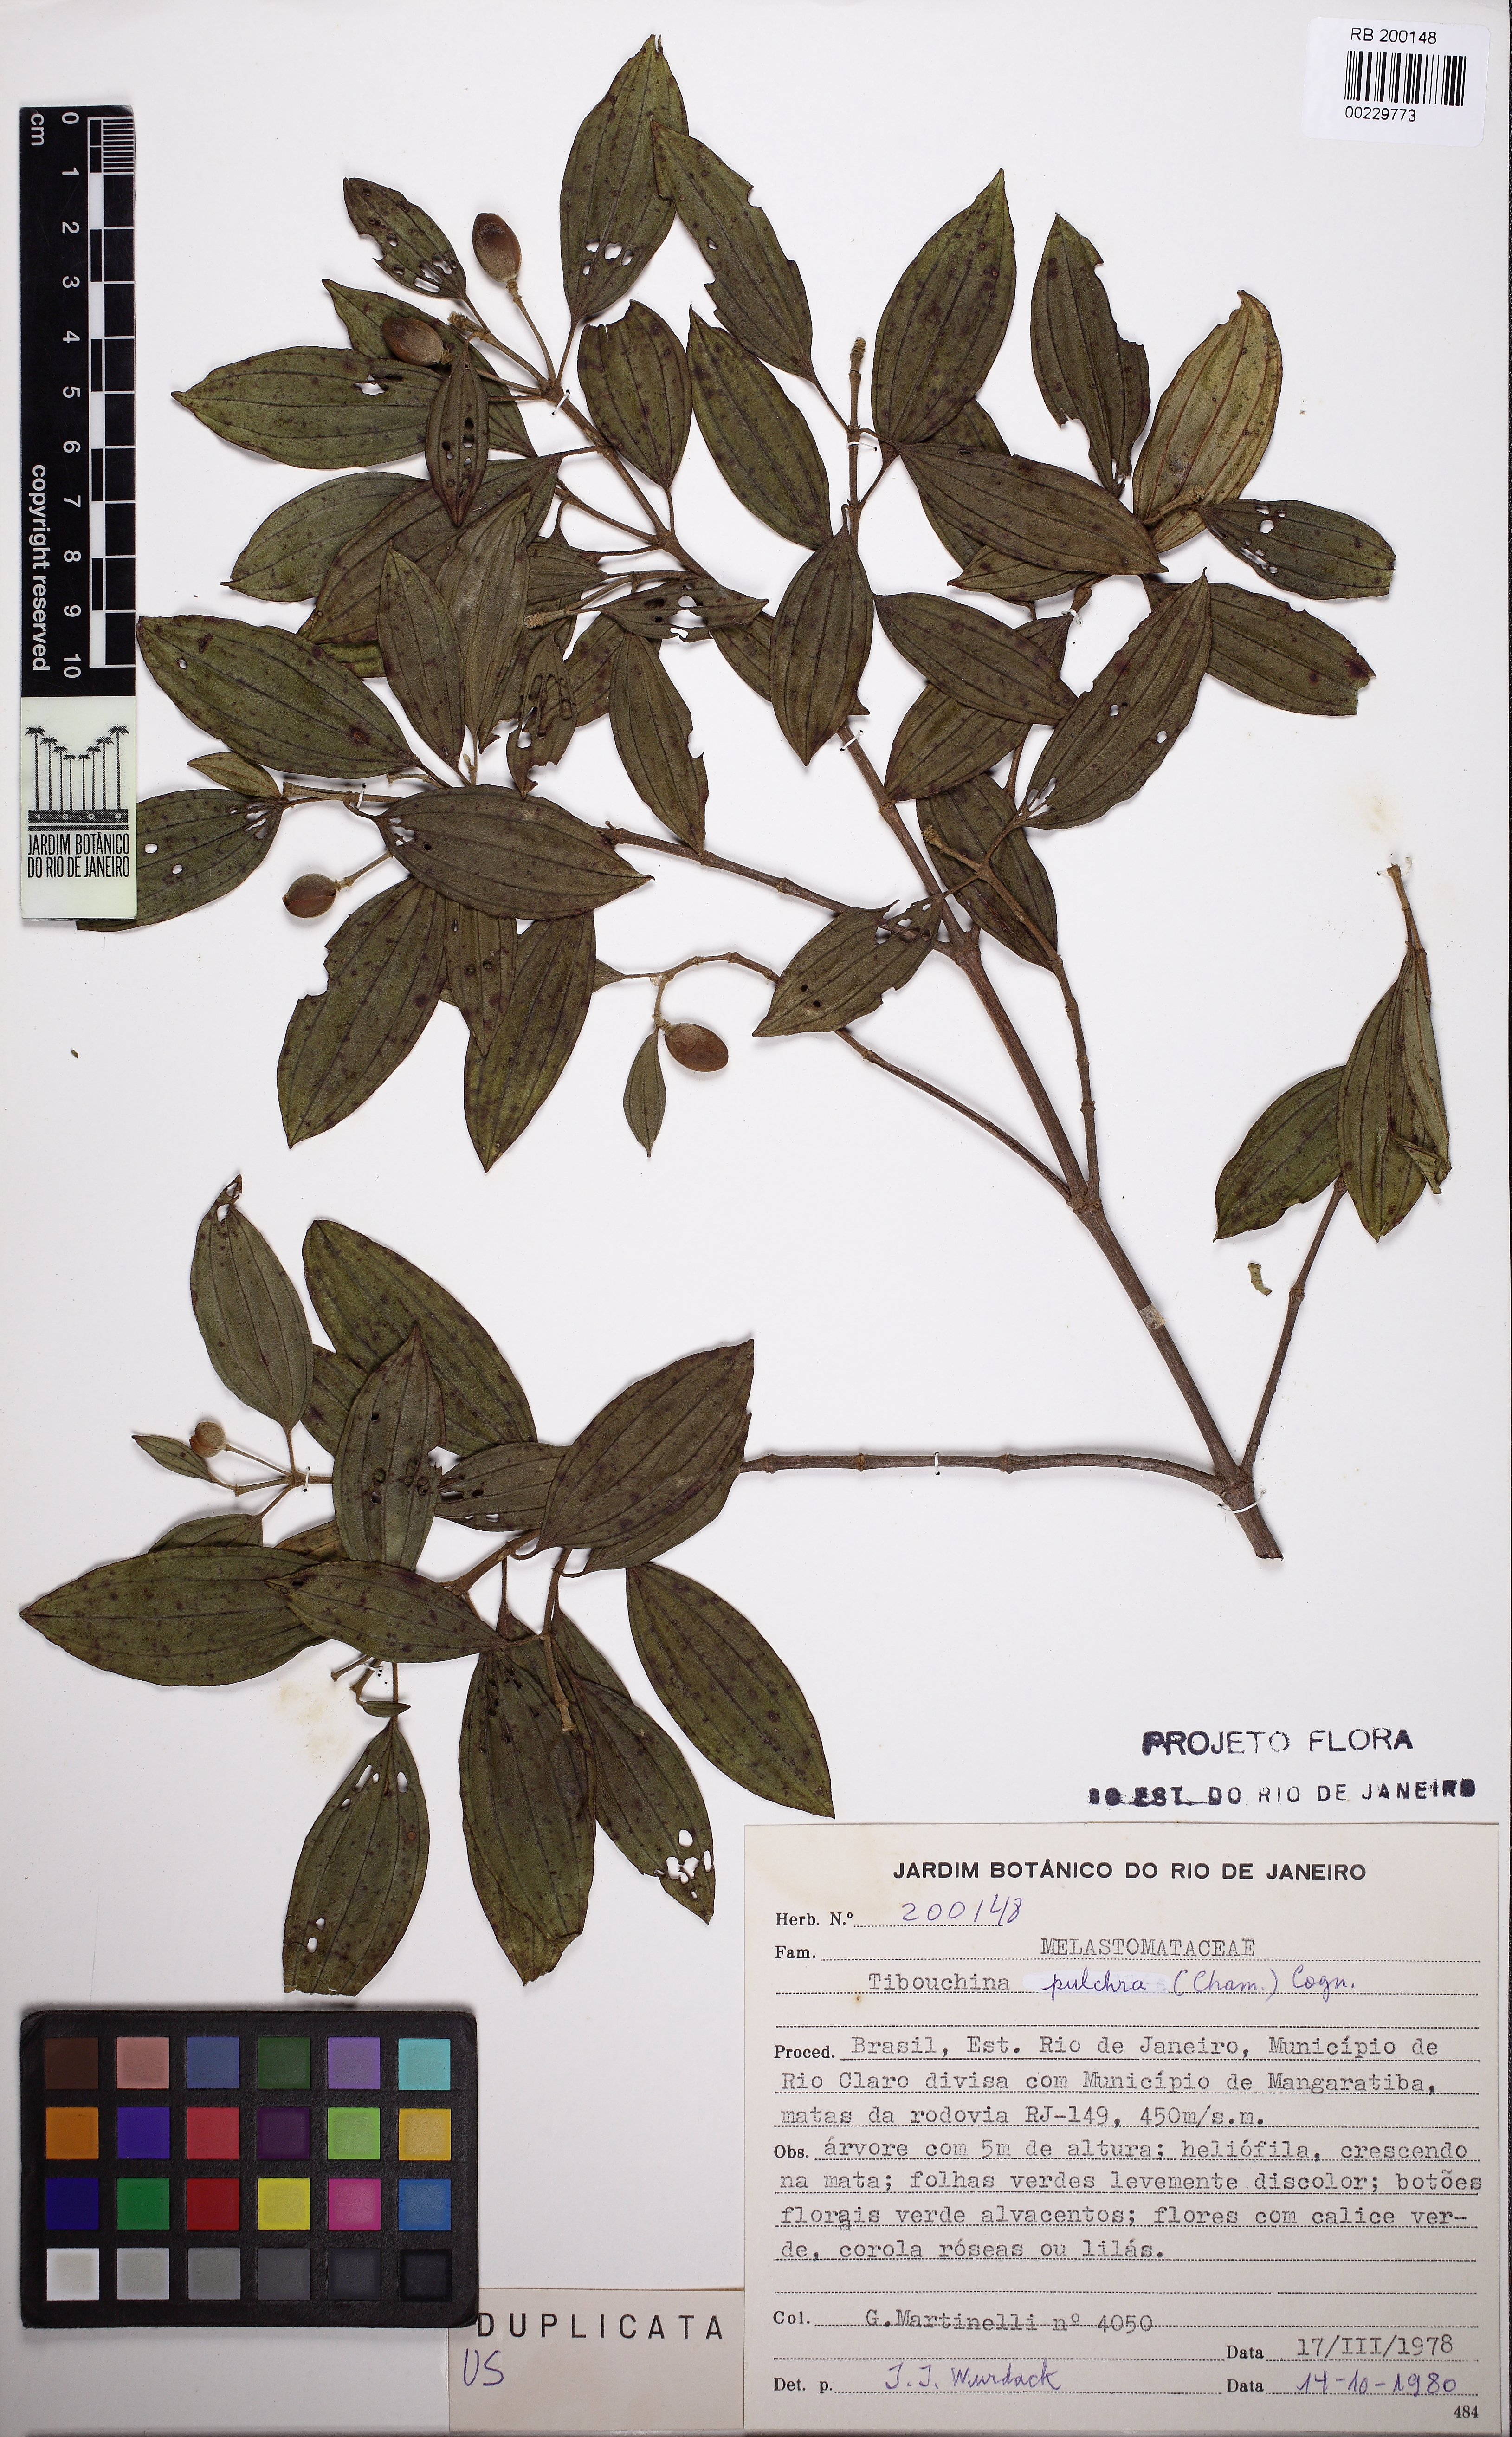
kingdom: Plantae
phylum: Tracheophyta
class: Magnoliopsida
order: Myrtales
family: Melastomataceae
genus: Pleroma
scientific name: Pleroma raddianum
